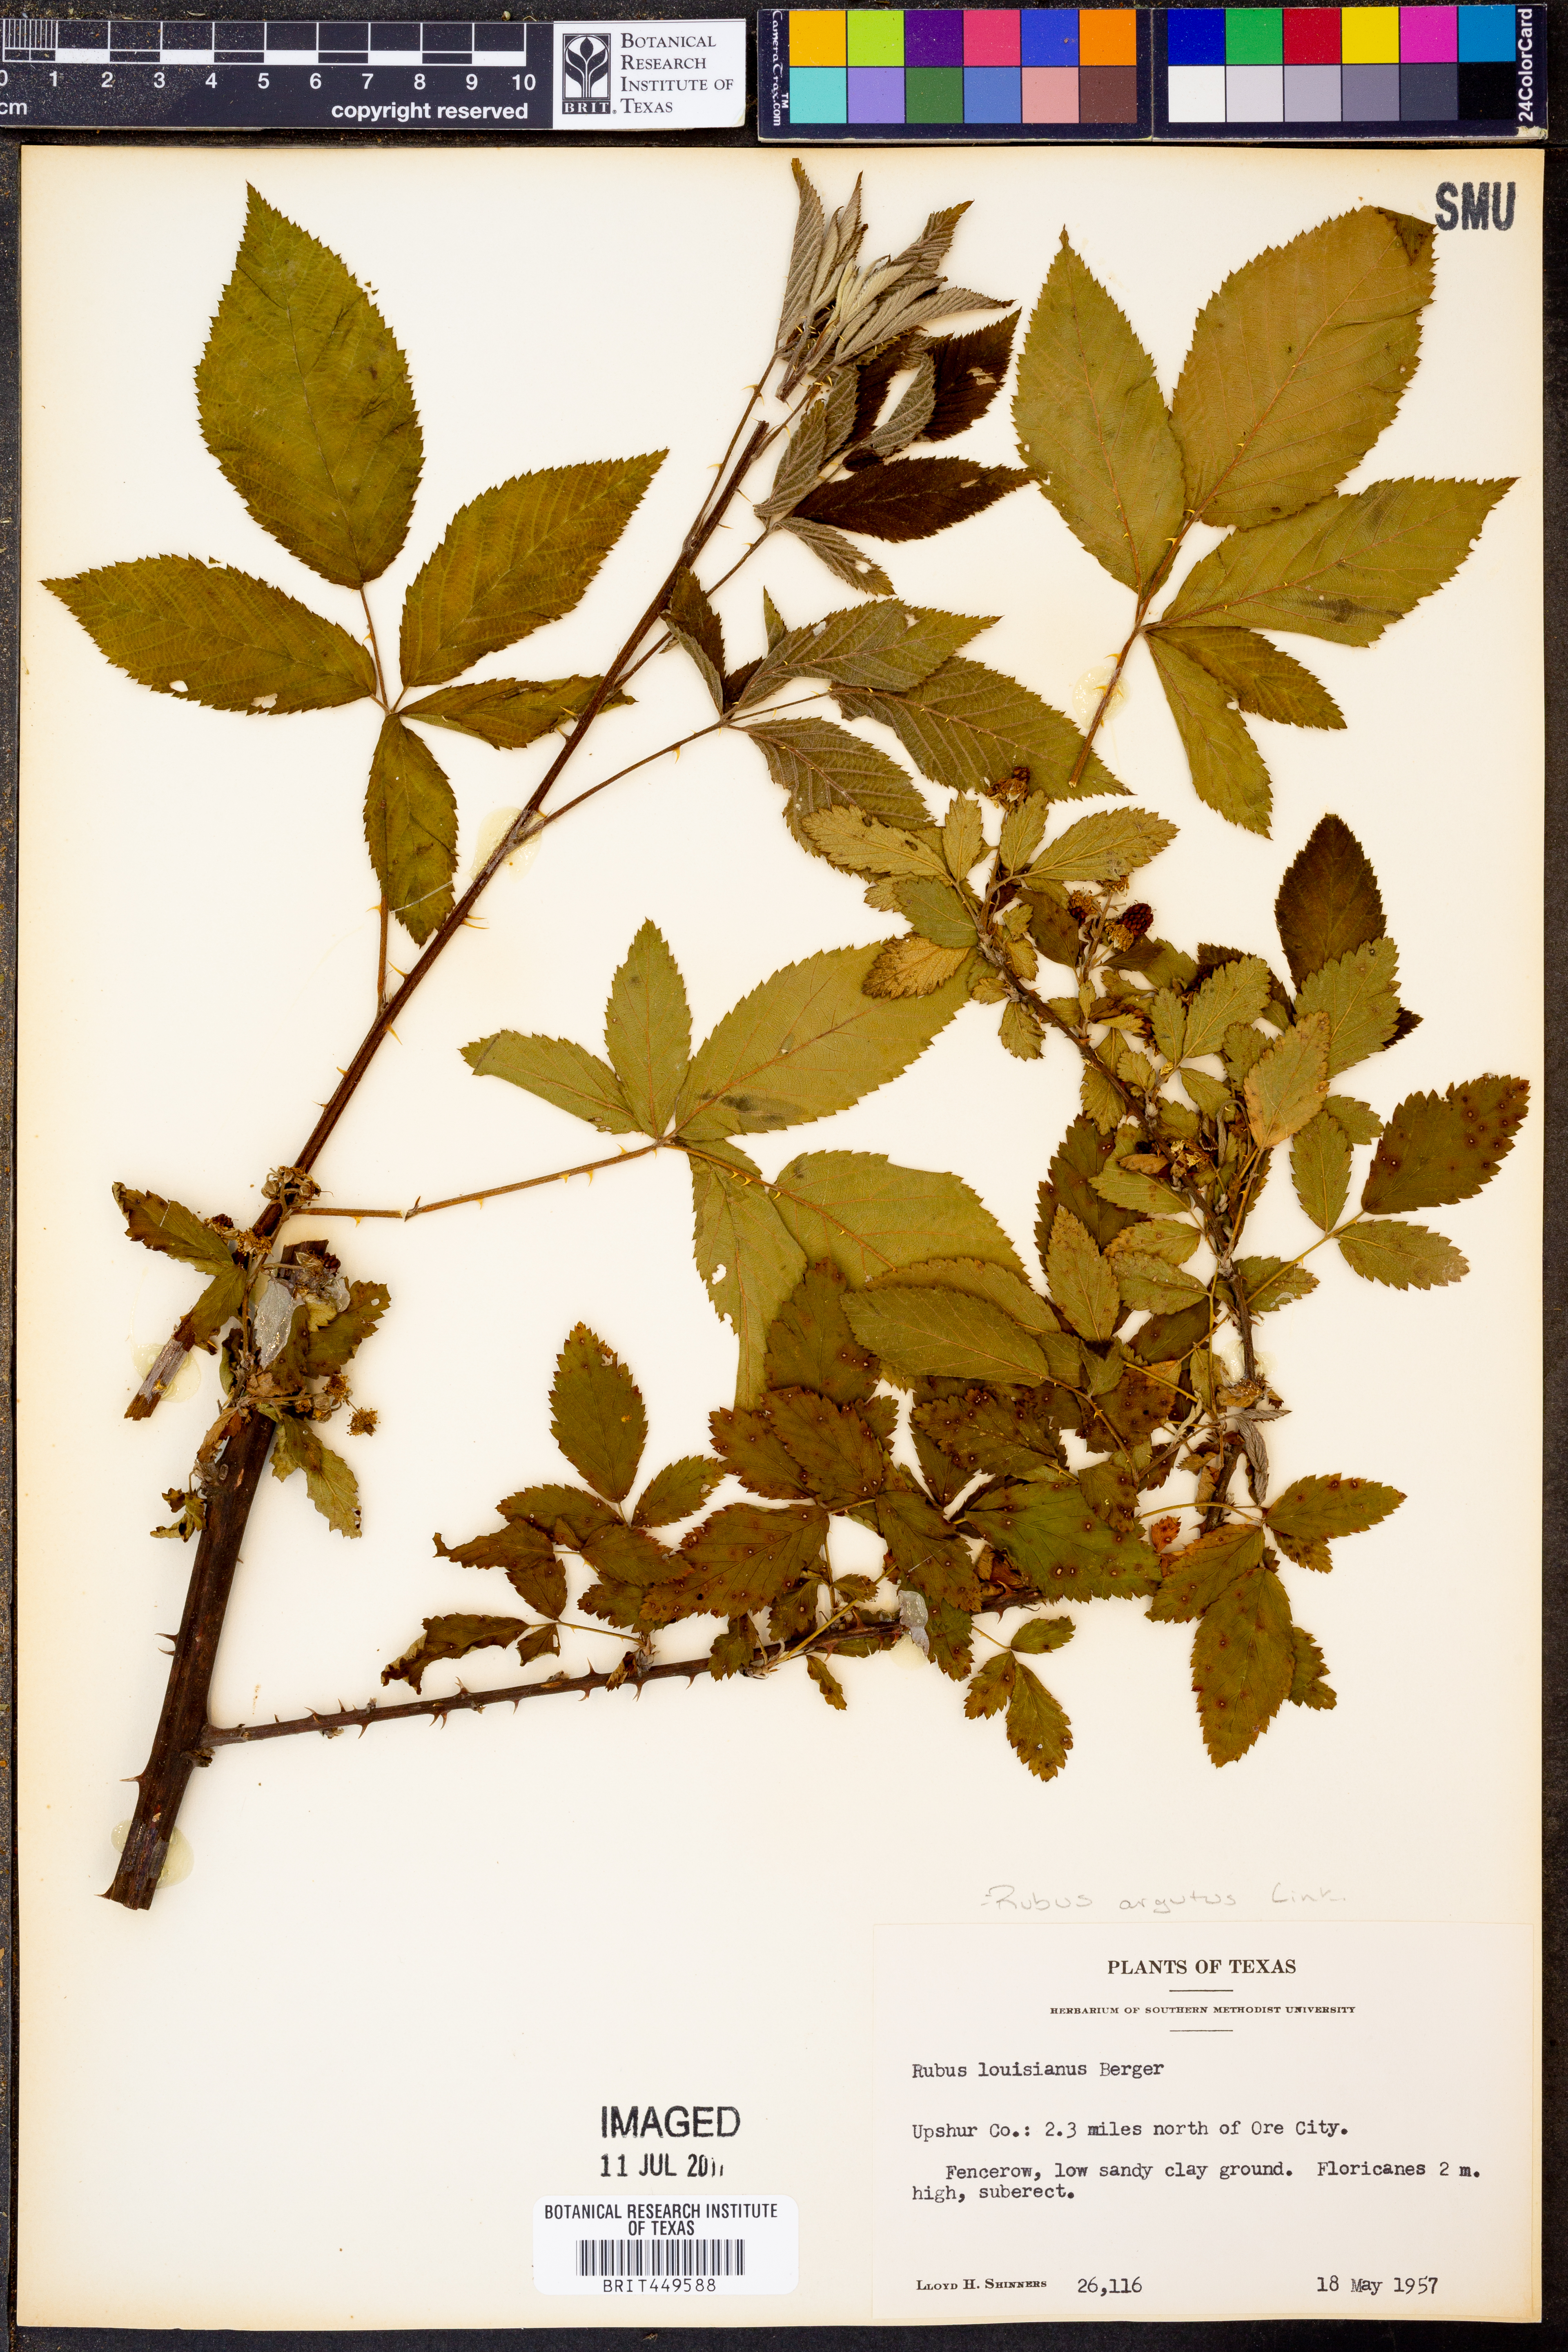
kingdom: Plantae
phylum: Tracheophyta
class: Magnoliopsida
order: Rosales
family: Rosaceae
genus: Rubus
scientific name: Rubus argutus
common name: Sawtooth blackberry
